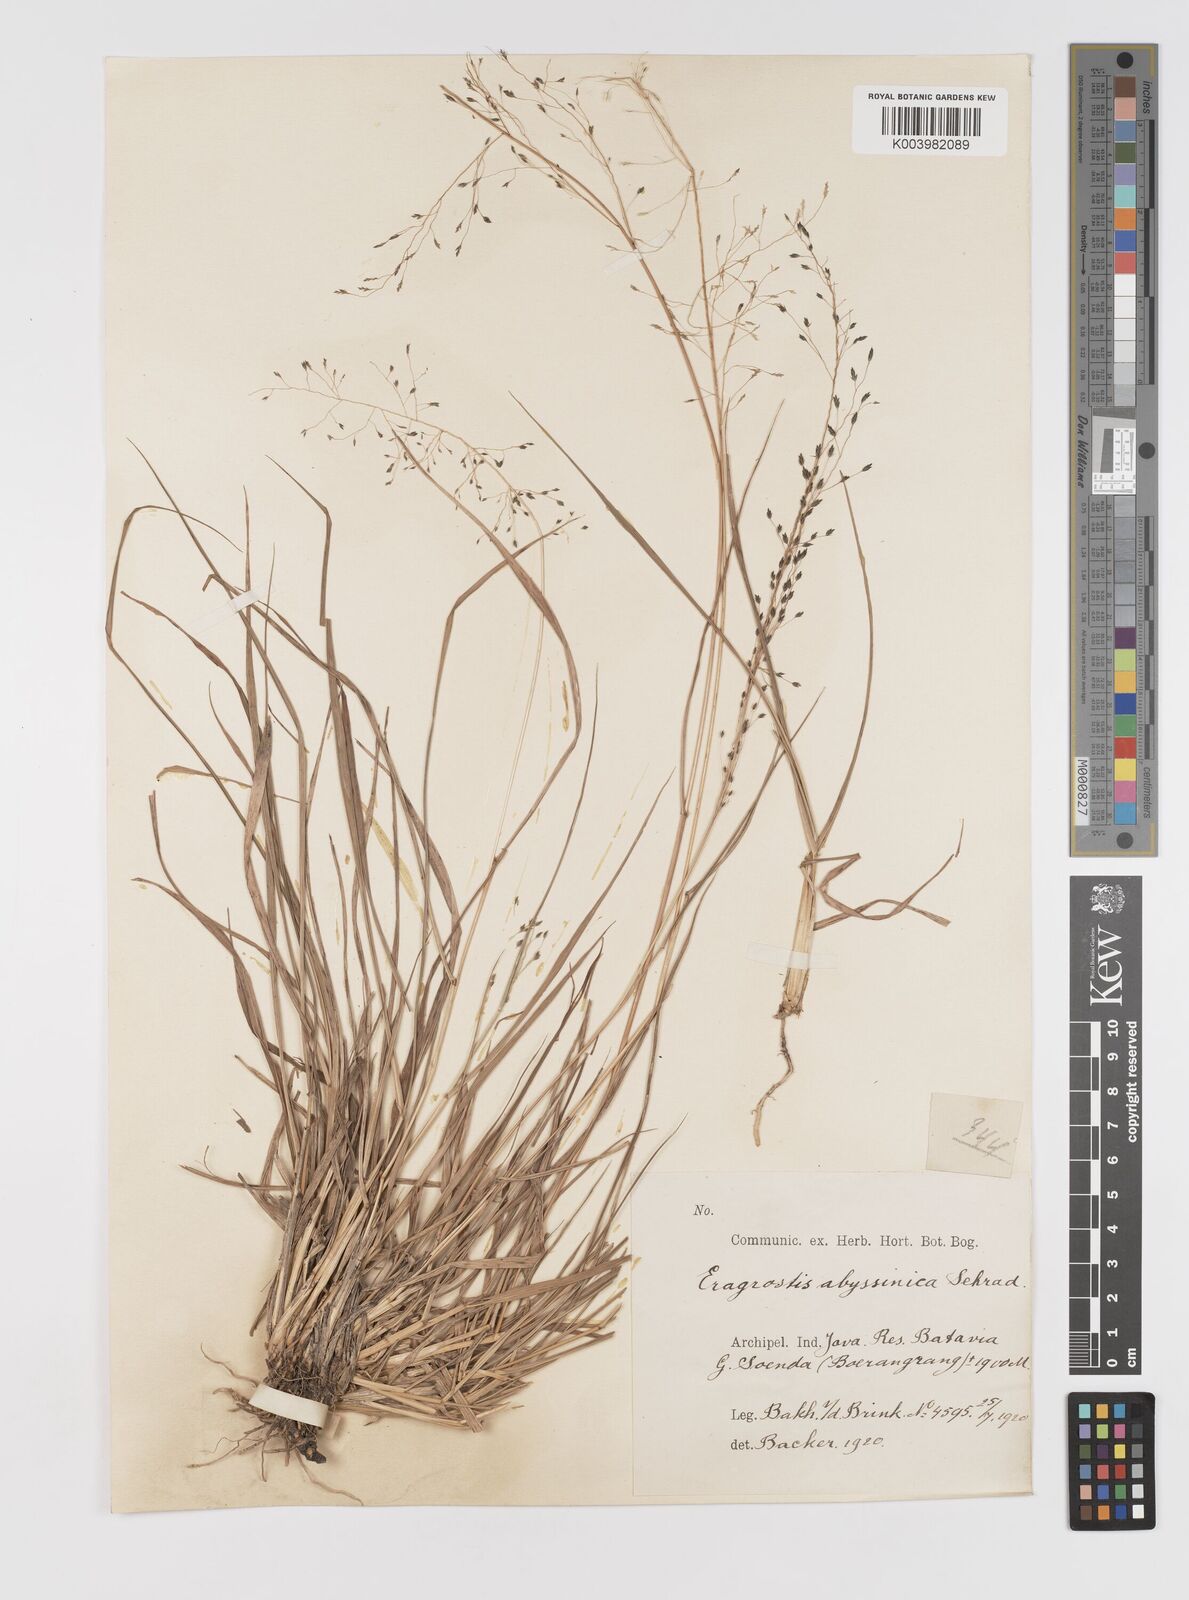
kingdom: Plantae
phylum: Tracheophyta
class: Liliopsida
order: Poales
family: Poaceae
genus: Eragrostis
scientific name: Eragrostis nigra
